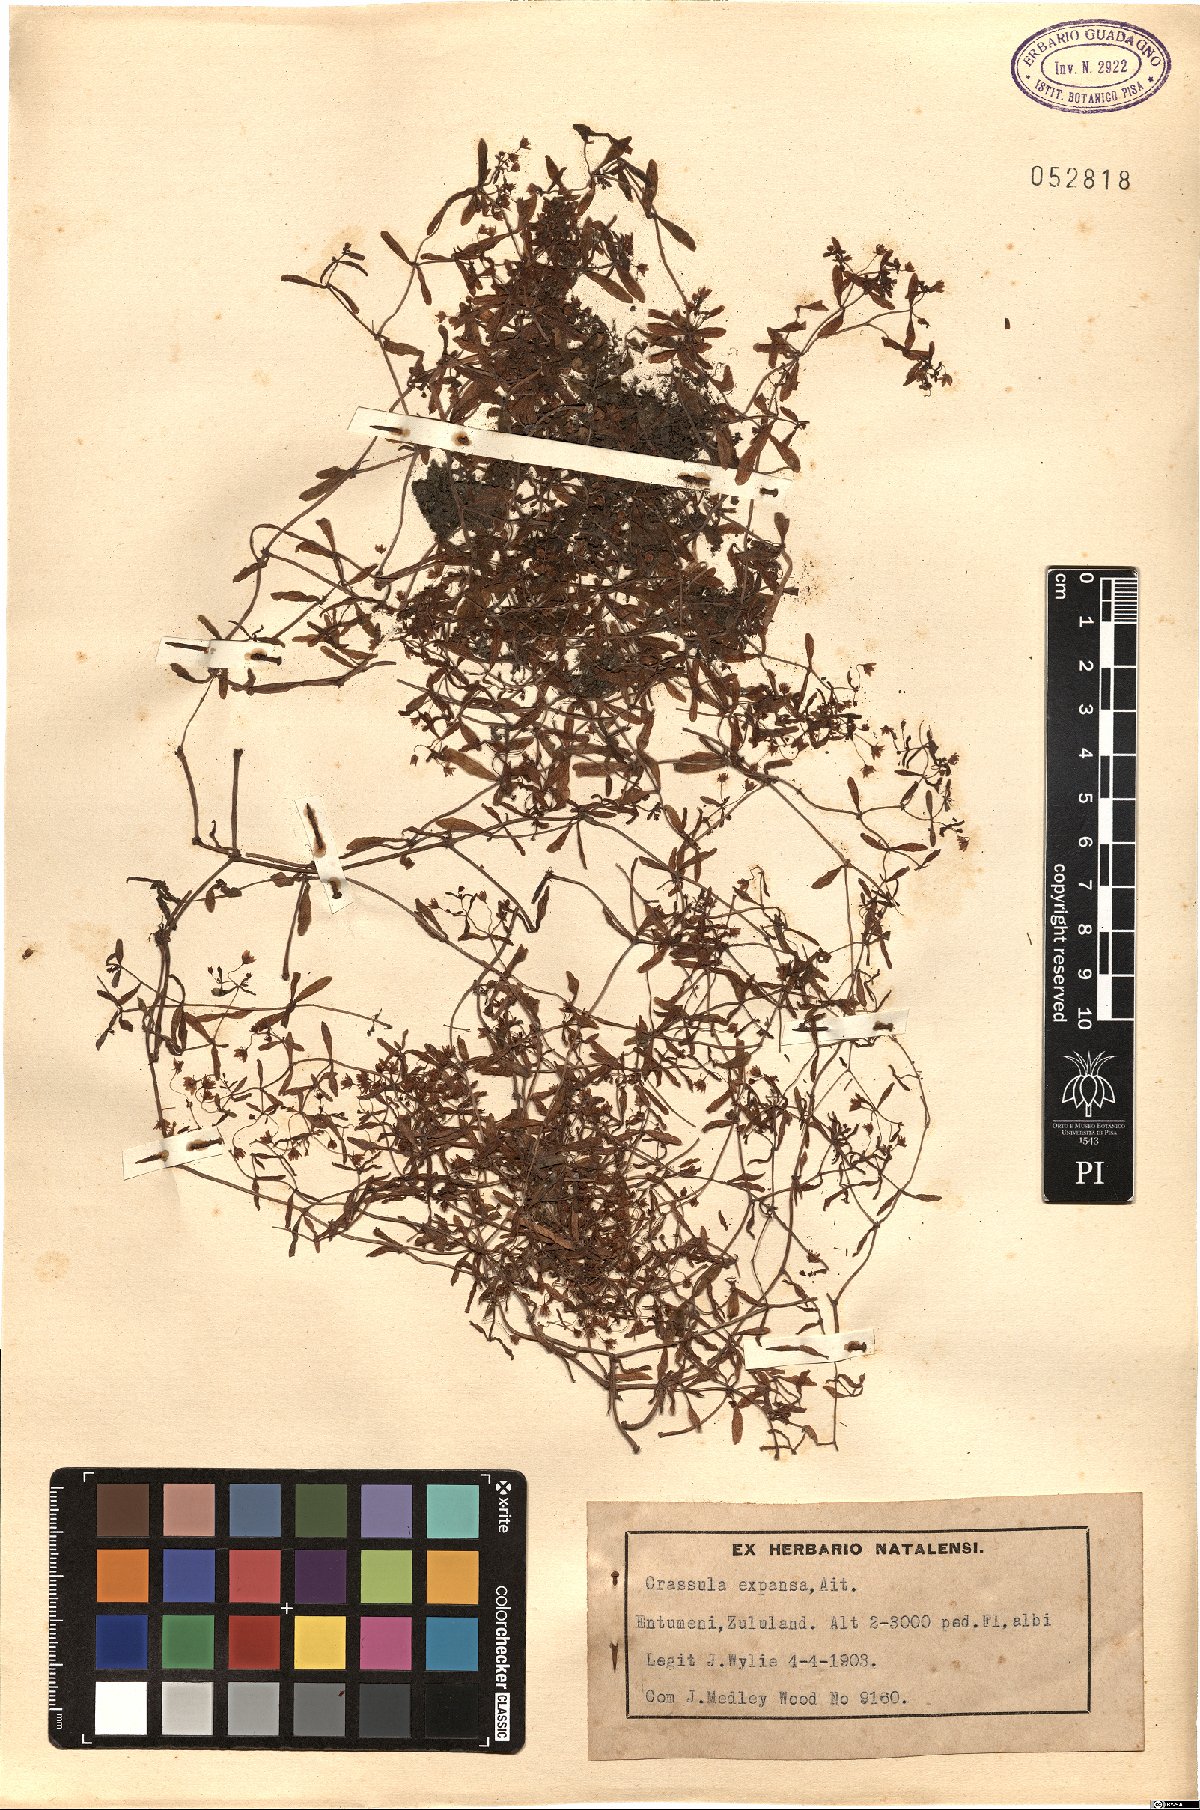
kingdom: Plantae
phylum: Tracheophyta
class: Magnoliopsida
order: Saxifragales
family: Crassulaceae
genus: Crassula
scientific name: Crassula expansa
